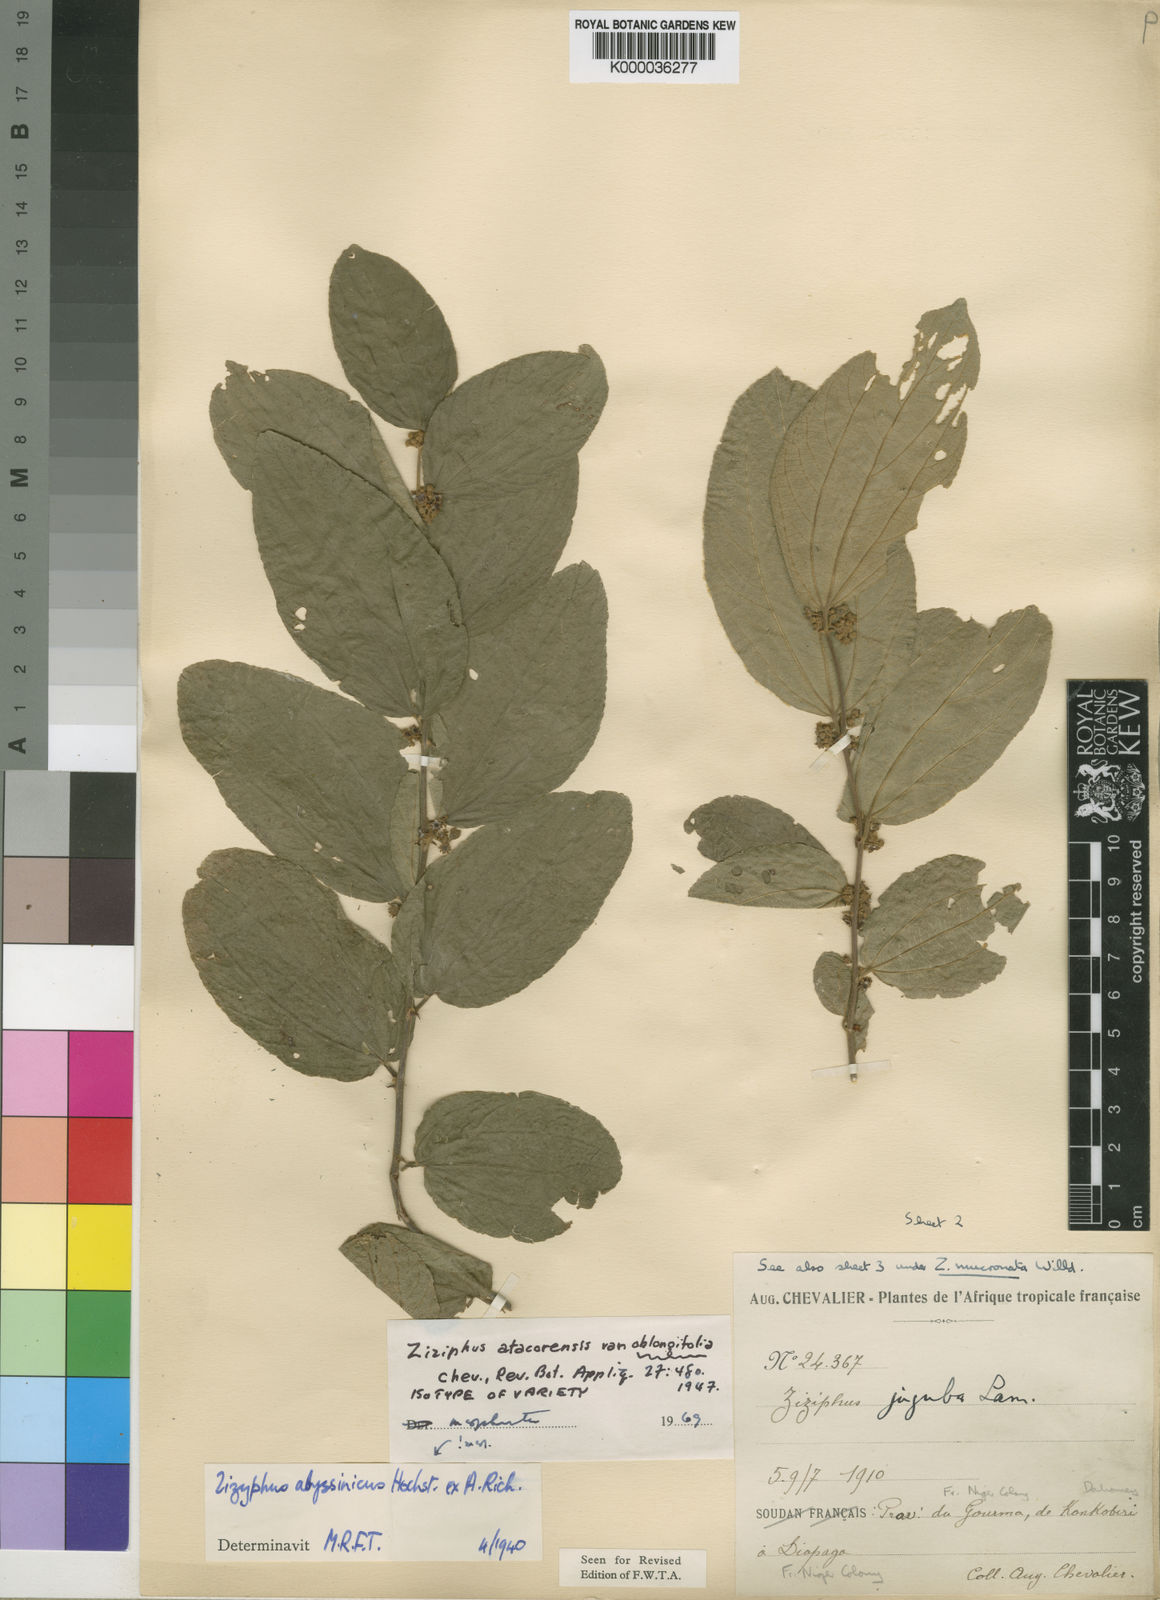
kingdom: Plantae
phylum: Tracheophyta
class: Magnoliopsida
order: Rosales
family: Rhamnaceae
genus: Ziziphus
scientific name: Ziziphus abyssinica
